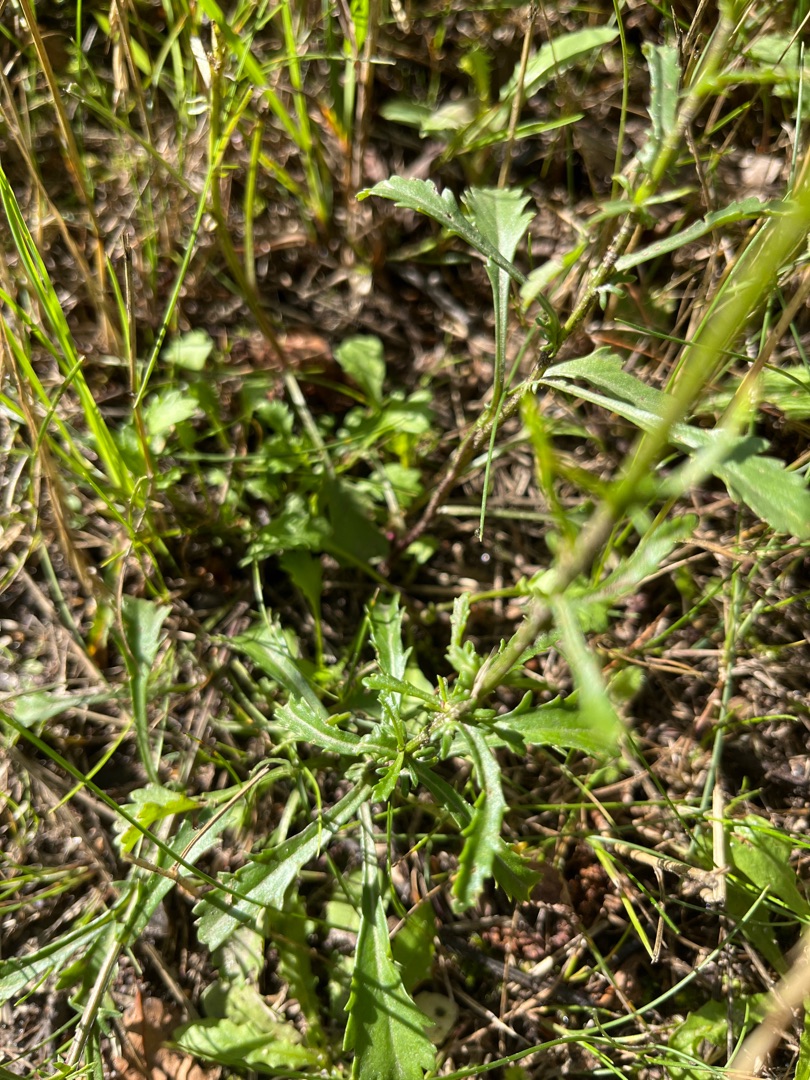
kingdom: Plantae
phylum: Tracheophyta
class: Magnoliopsida
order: Asterales
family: Asteraceae
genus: Leucanthemum
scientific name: Leucanthemum vulgare
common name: Hvid okseøje
